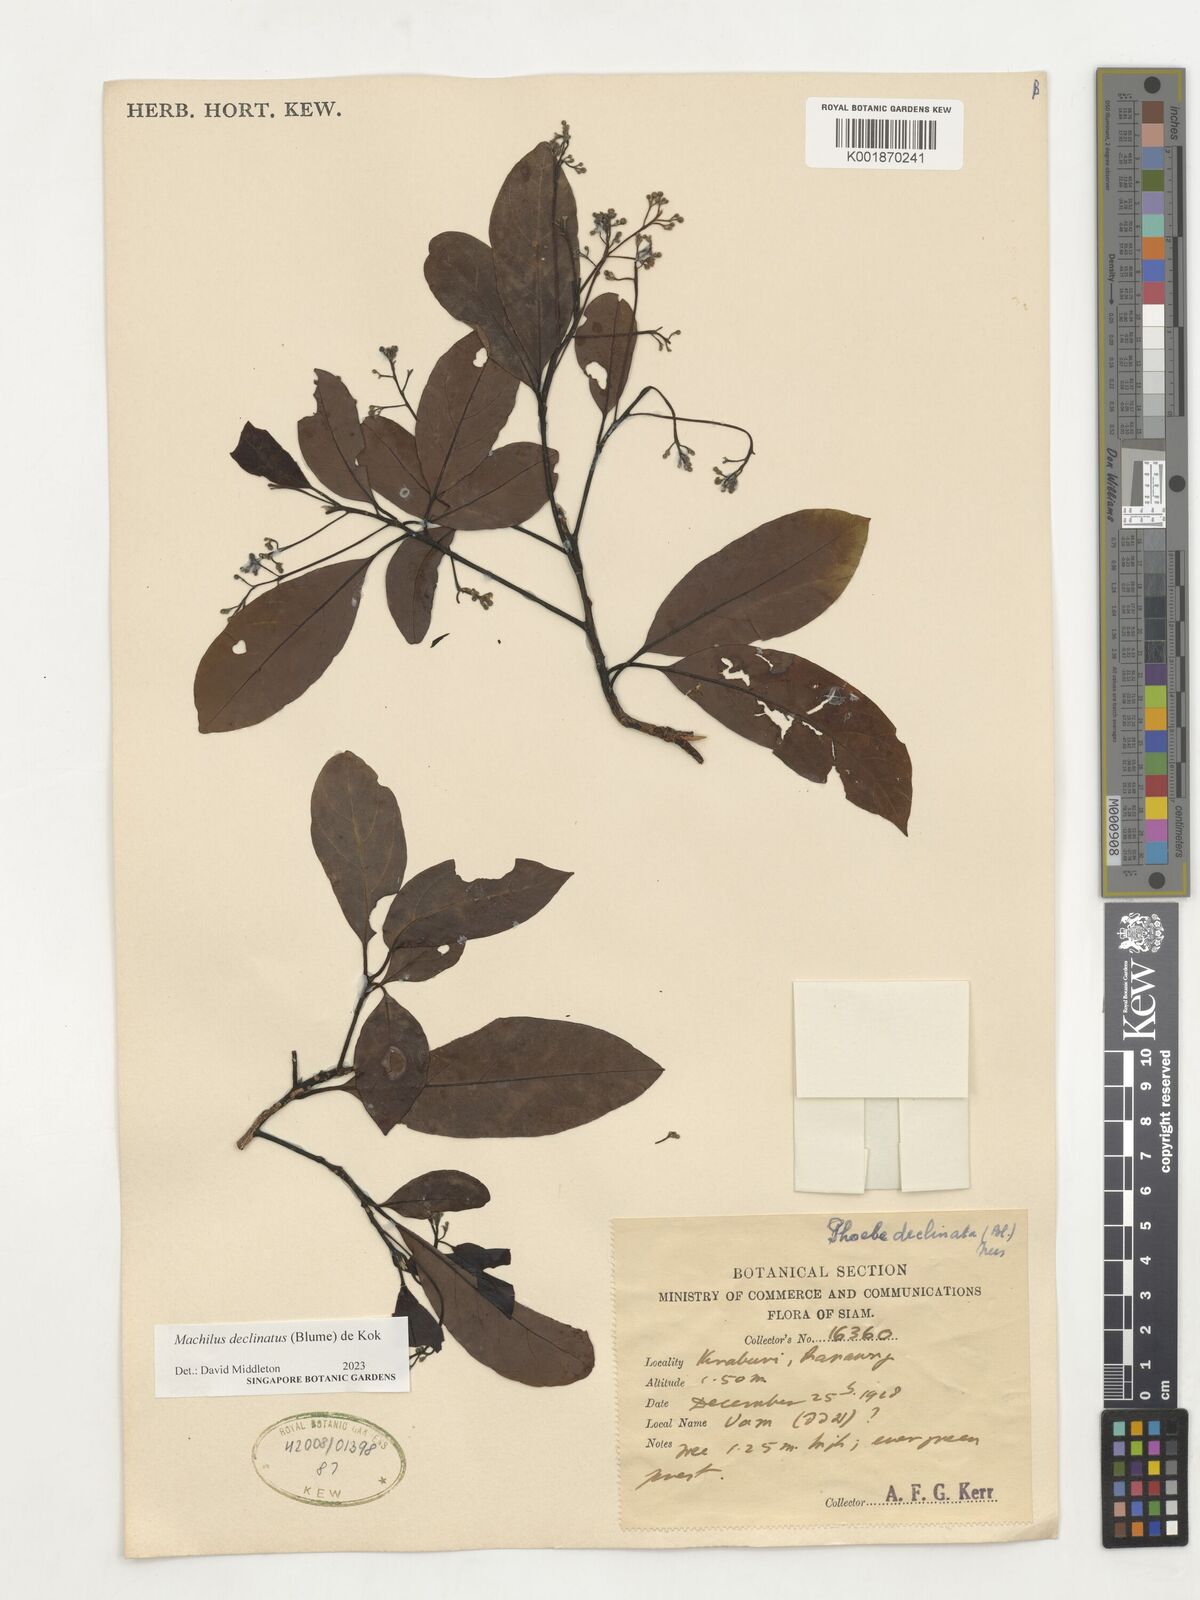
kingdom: Plantae
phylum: Tracheophyta
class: Magnoliopsida
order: Laurales
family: Lauraceae
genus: Machilus
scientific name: Machilus declinata
